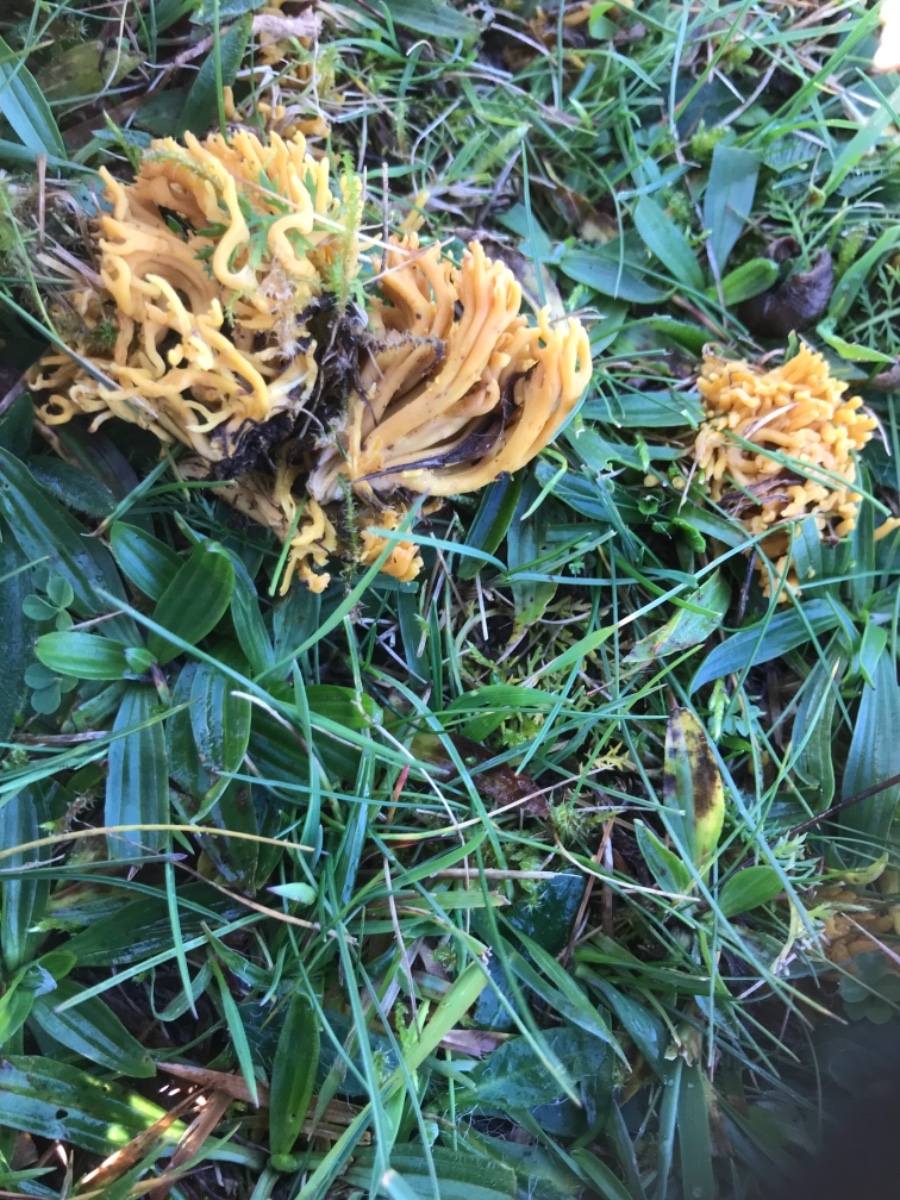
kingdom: Fungi
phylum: Basidiomycota
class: Agaricomycetes
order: Agaricales
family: Clavariaceae
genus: Clavulinopsis
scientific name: Clavulinopsis corniculata
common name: eng-køllesvamp
